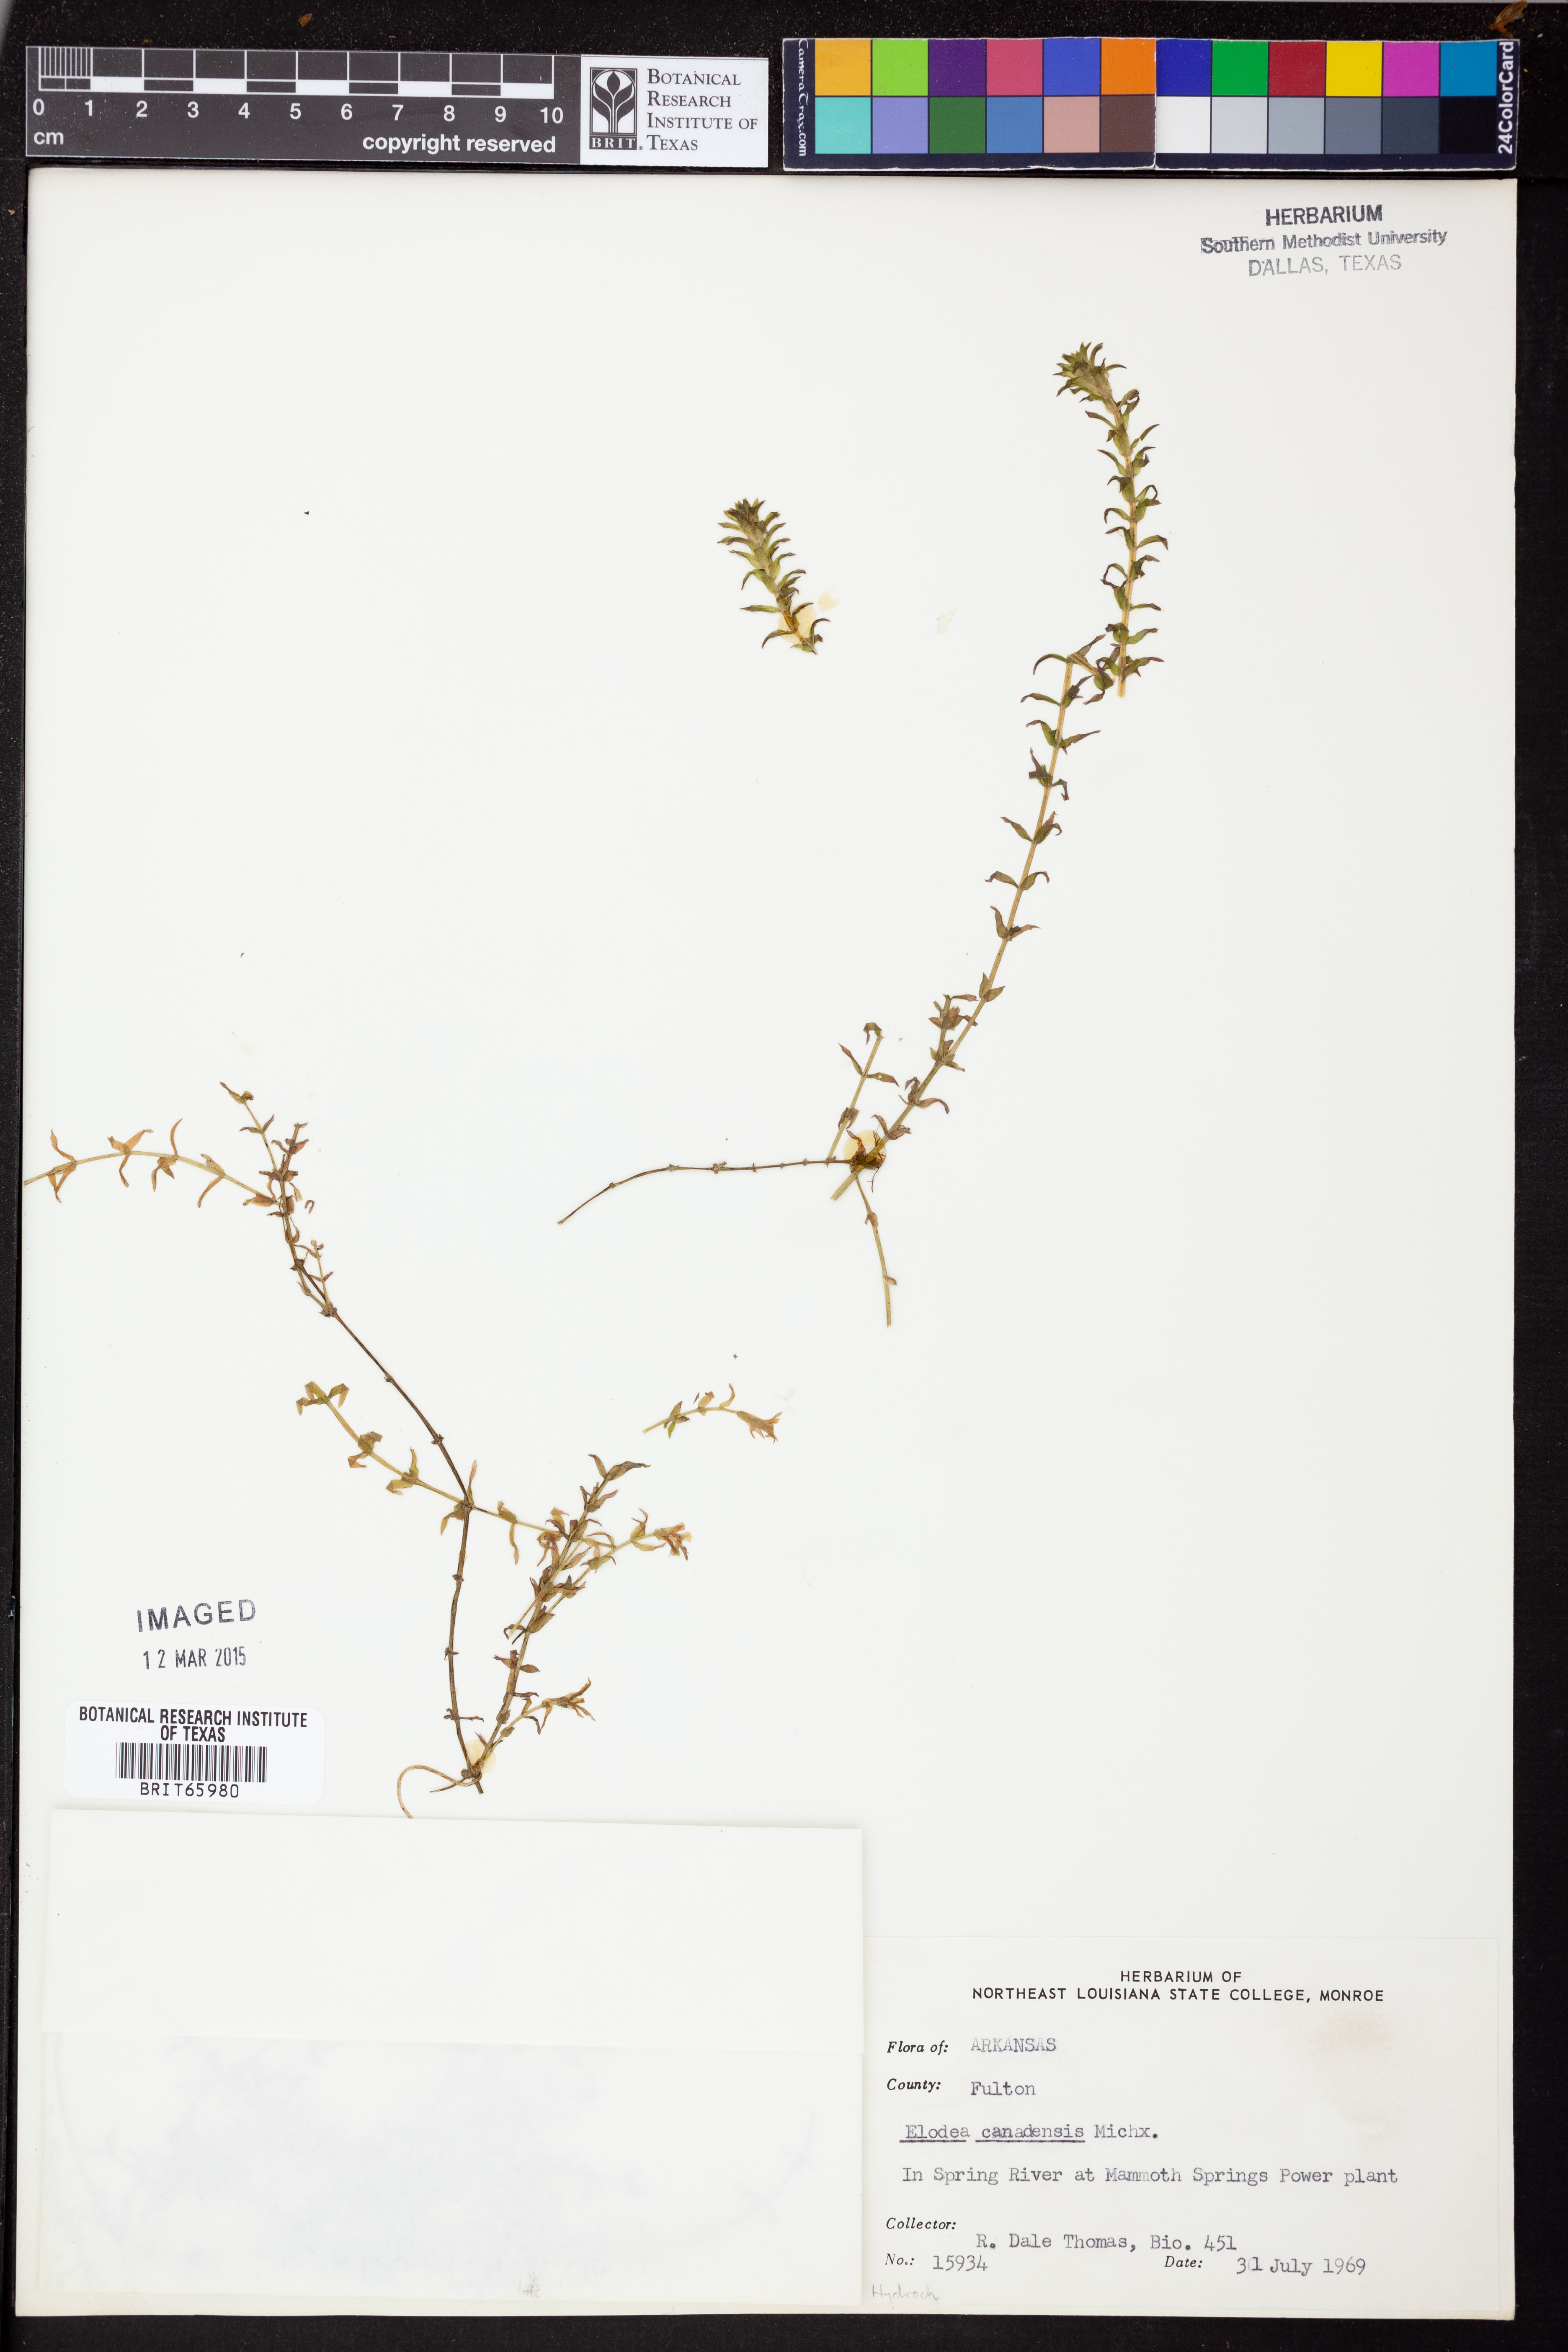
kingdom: Plantae
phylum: Tracheophyta
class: Liliopsida
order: Alismatales
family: Hydrocharitaceae
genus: Elodea
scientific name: Elodea canadensis
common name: Canadian waterweed
